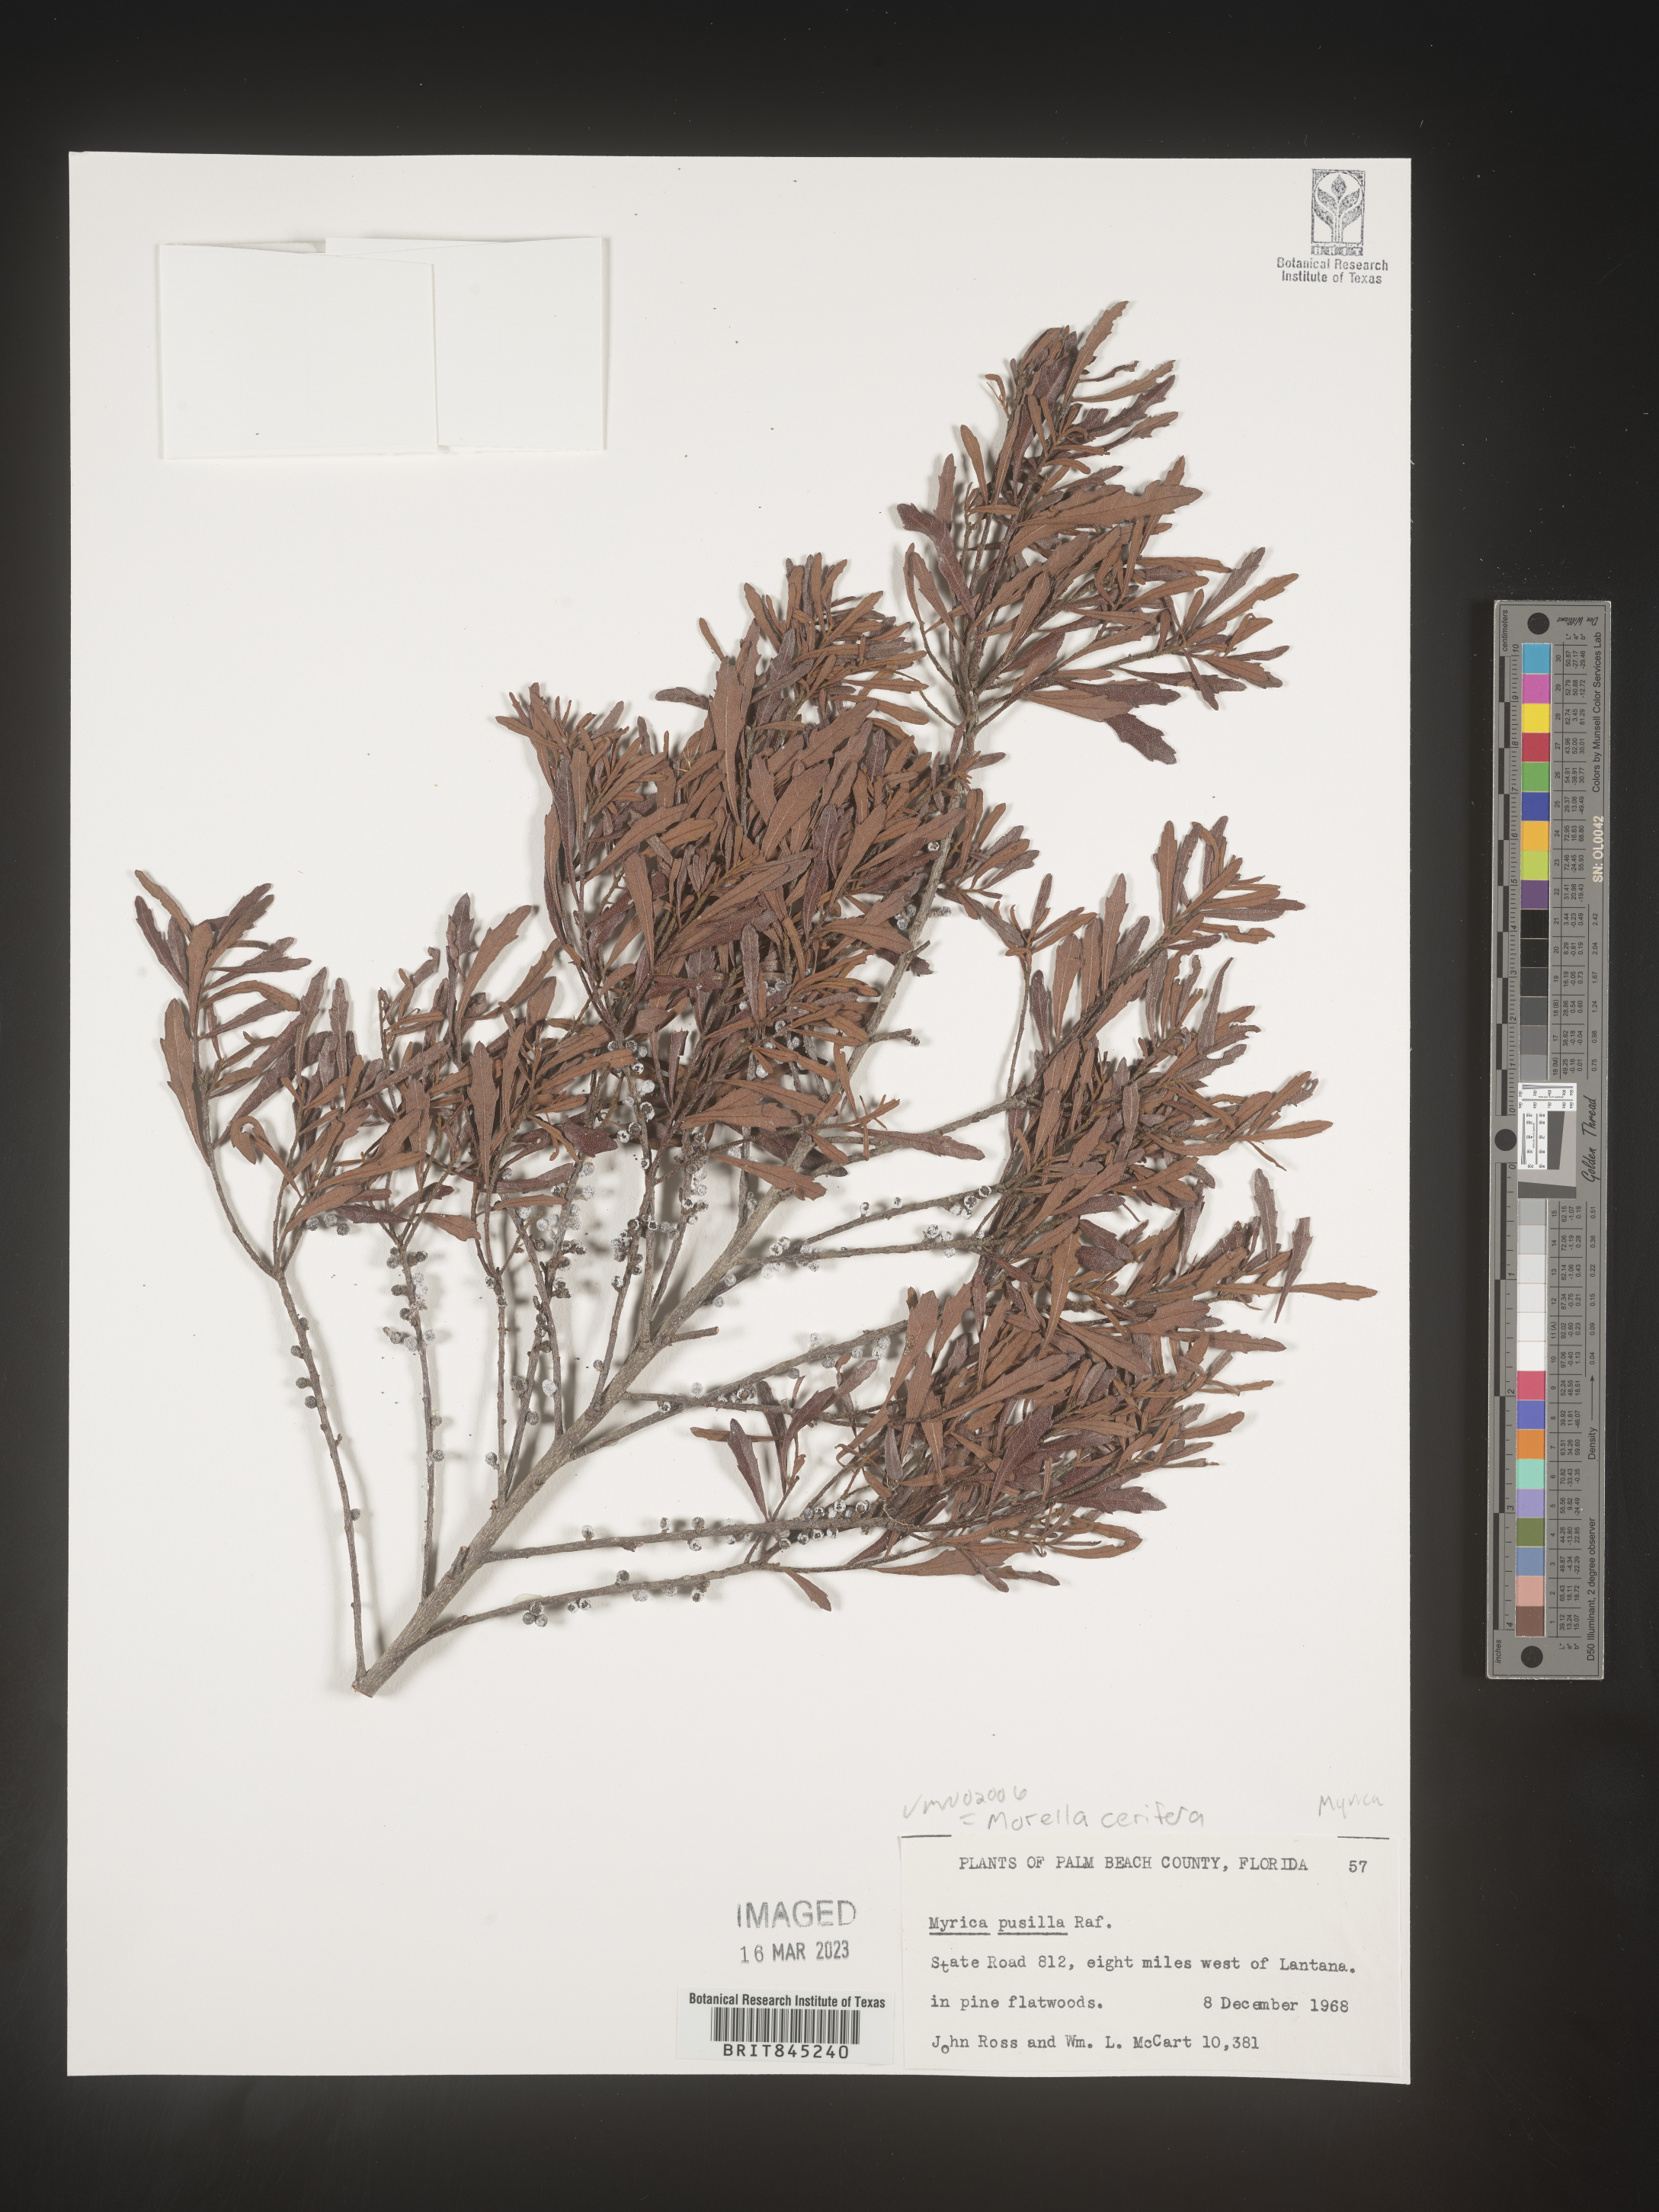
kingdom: Plantae
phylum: Tracheophyta
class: Magnoliopsida
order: Fagales
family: Myricaceae
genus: Morella
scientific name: Morella cerifera
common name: Wax myrtle
